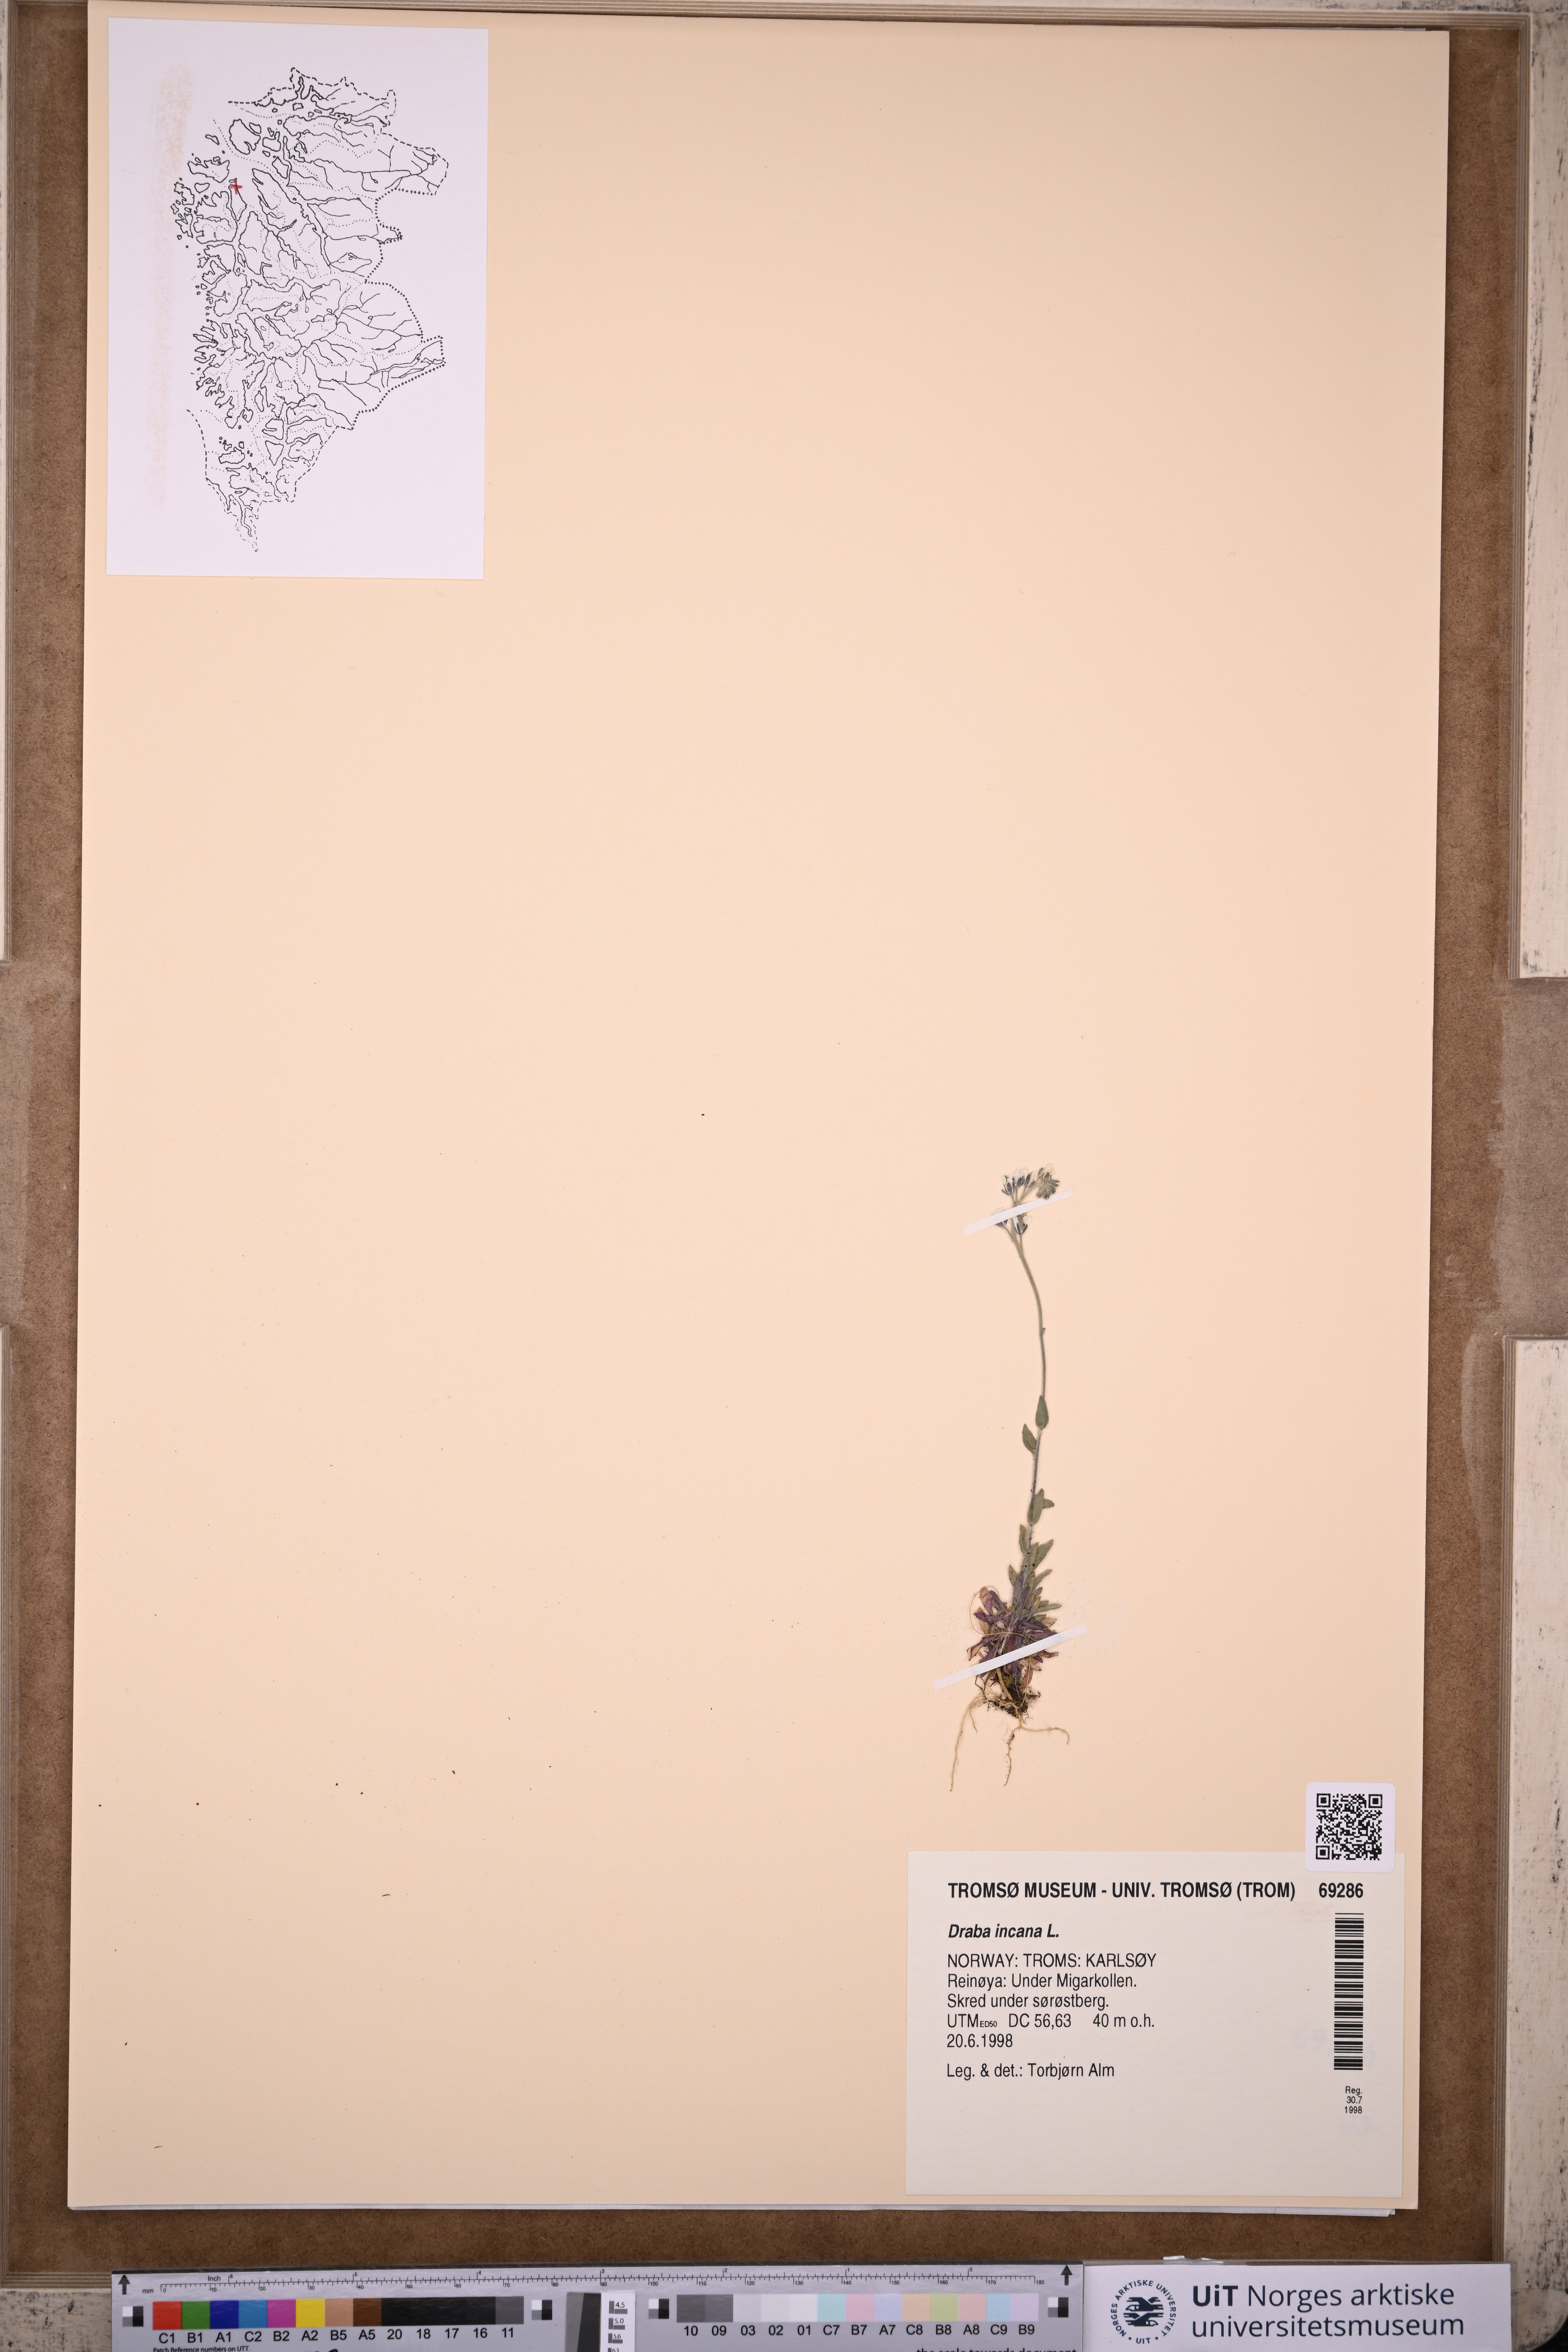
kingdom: Plantae
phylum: Tracheophyta
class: Magnoliopsida
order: Brassicales
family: Brassicaceae
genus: Draba
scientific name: Draba incana
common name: Hoary whitlow-grass
